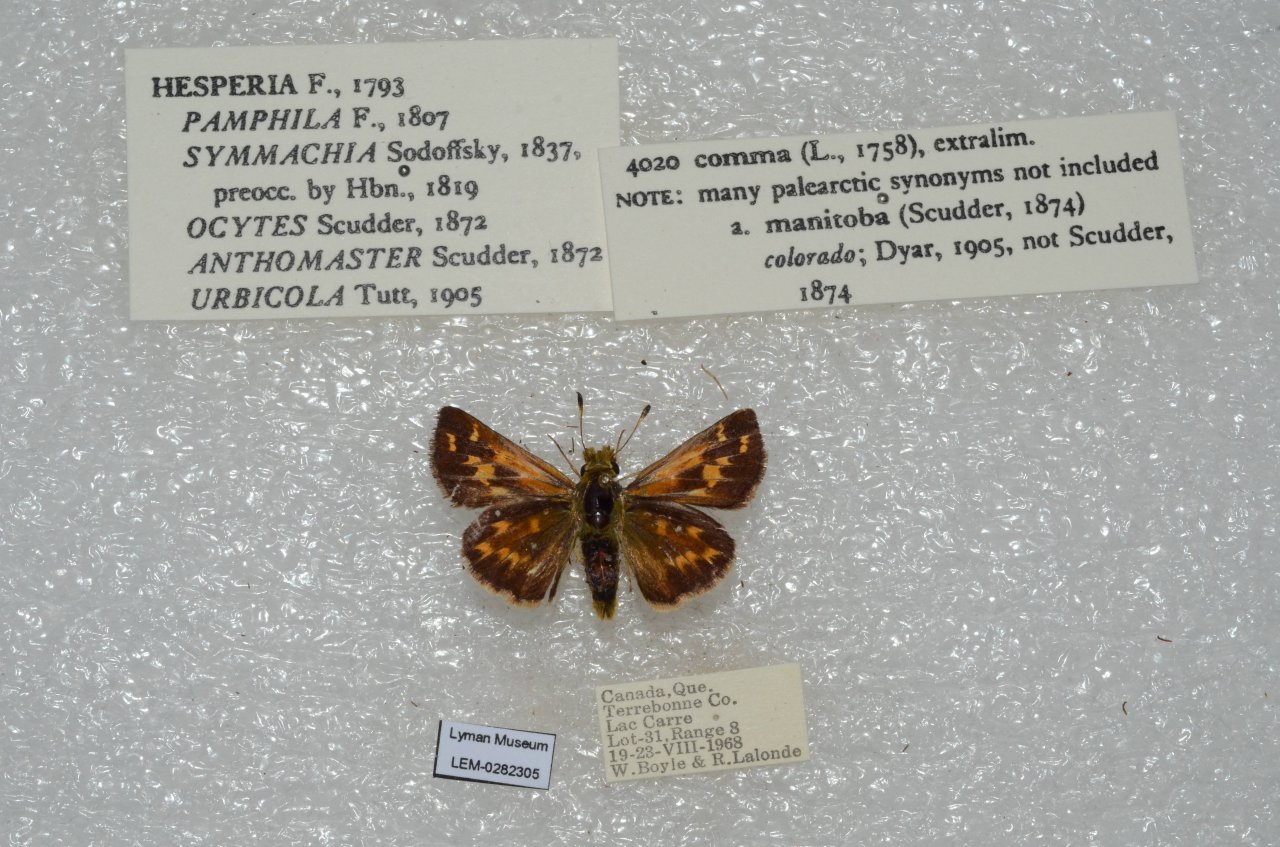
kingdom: Animalia
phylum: Arthropoda
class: Insecta
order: Lepidoptera
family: Hesperiidae
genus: Hesperia
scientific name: Hesperia comma
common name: Common Branded Skipper
